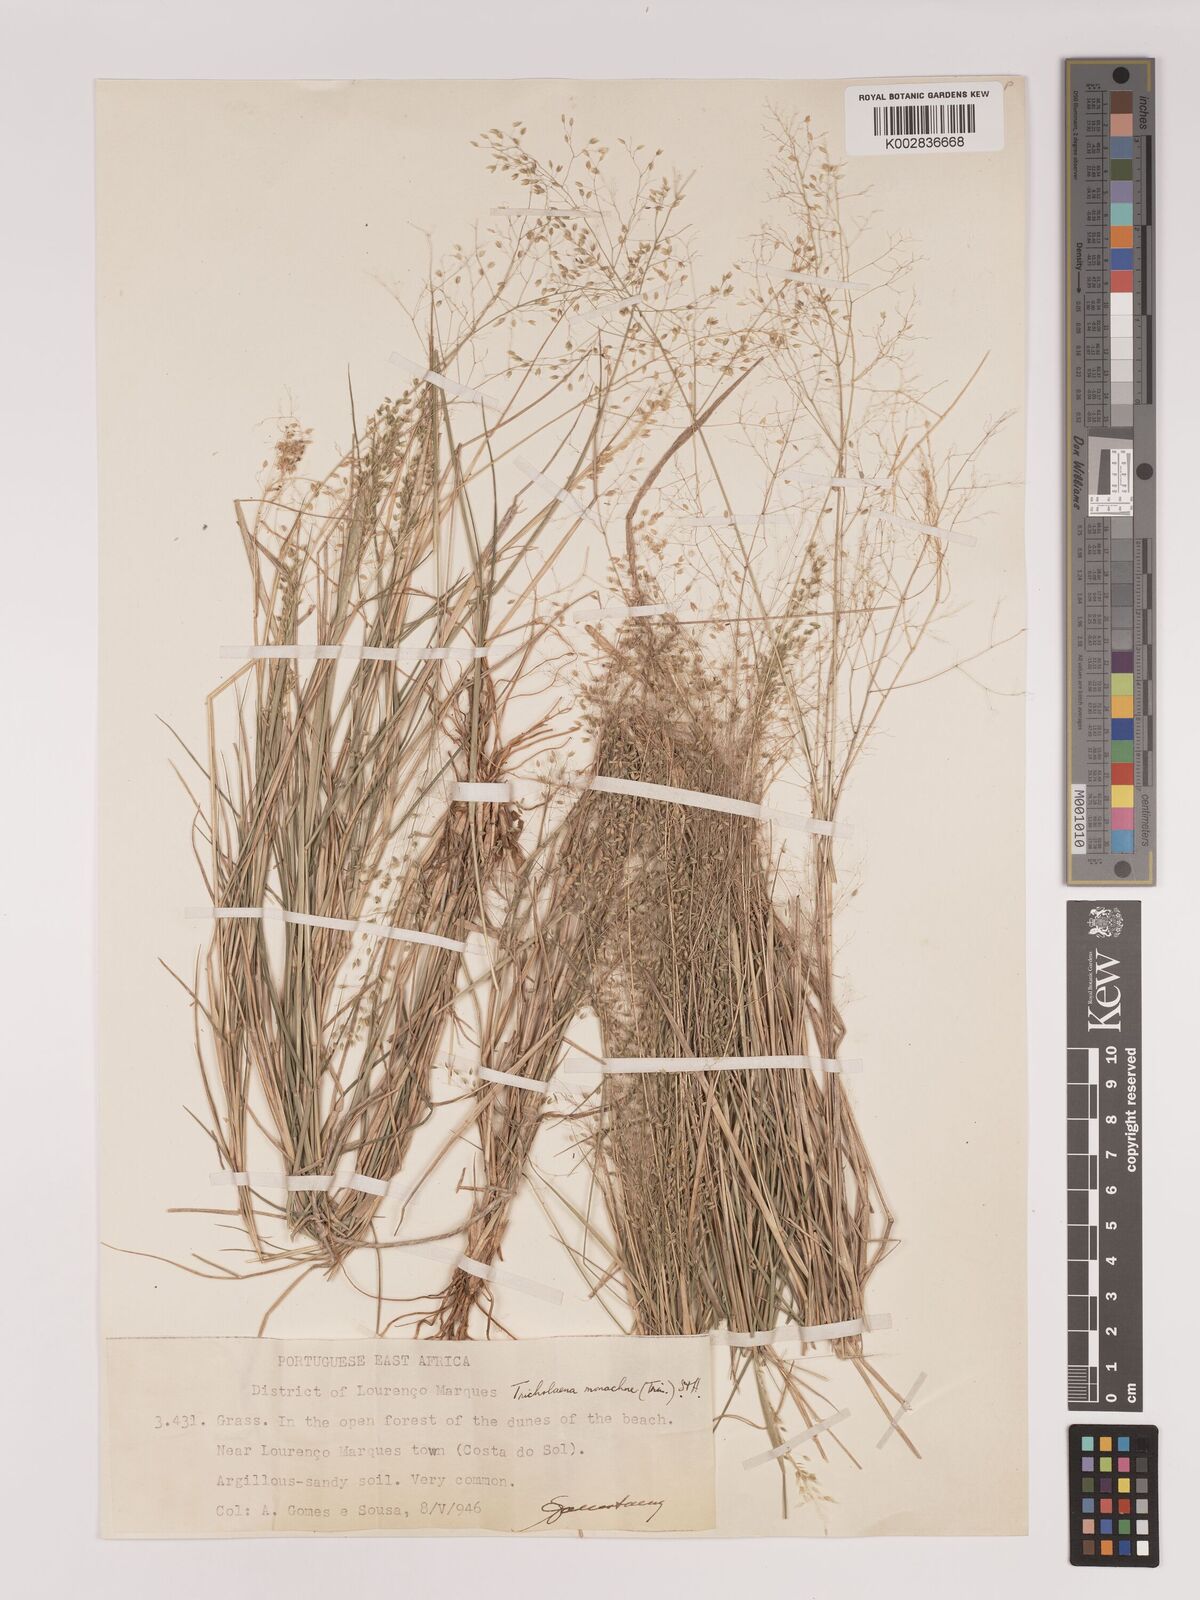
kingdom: Plantae
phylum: Tracheophyta
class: Liliopsida
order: Poales
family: Poaceae
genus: Tricholaena
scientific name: Tricholaena monachne
